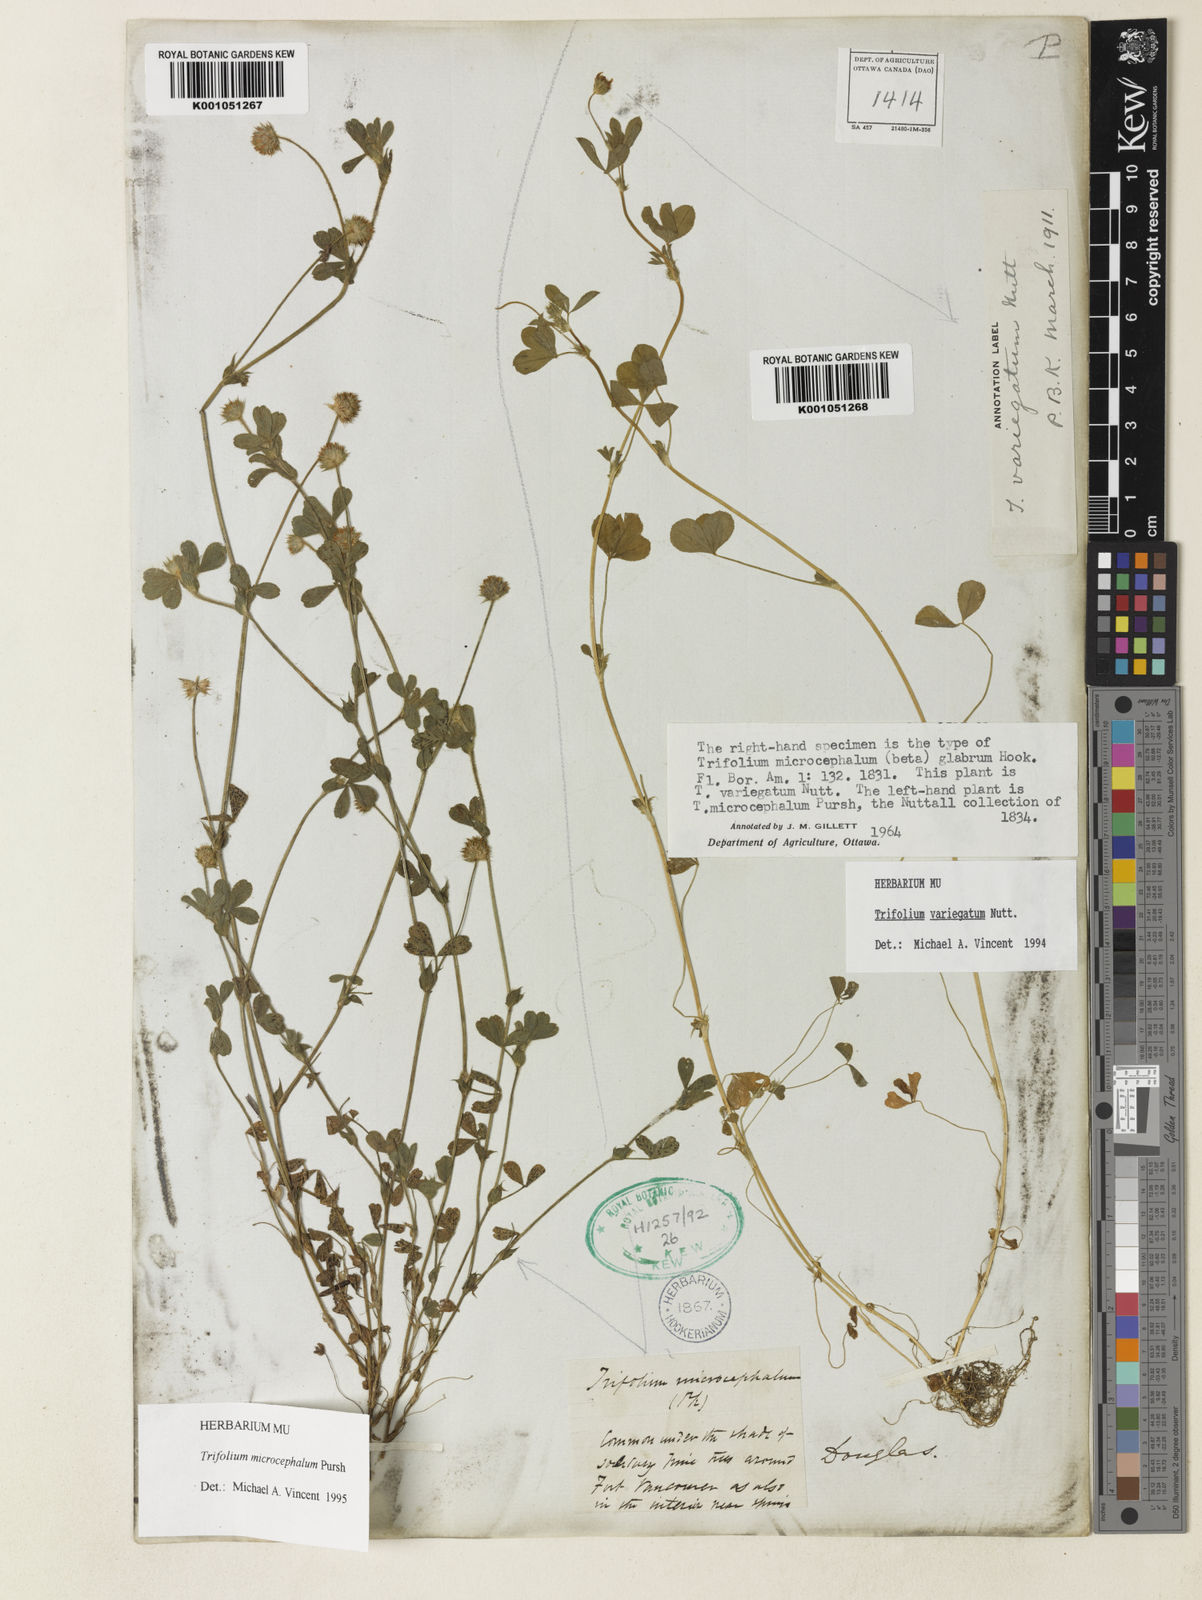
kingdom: Plantae
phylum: Tracheophyta
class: Magnoliopsida
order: Fabales
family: Fabaceae
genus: Trifolium
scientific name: Trifolium microcephalum
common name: Maiden clover
